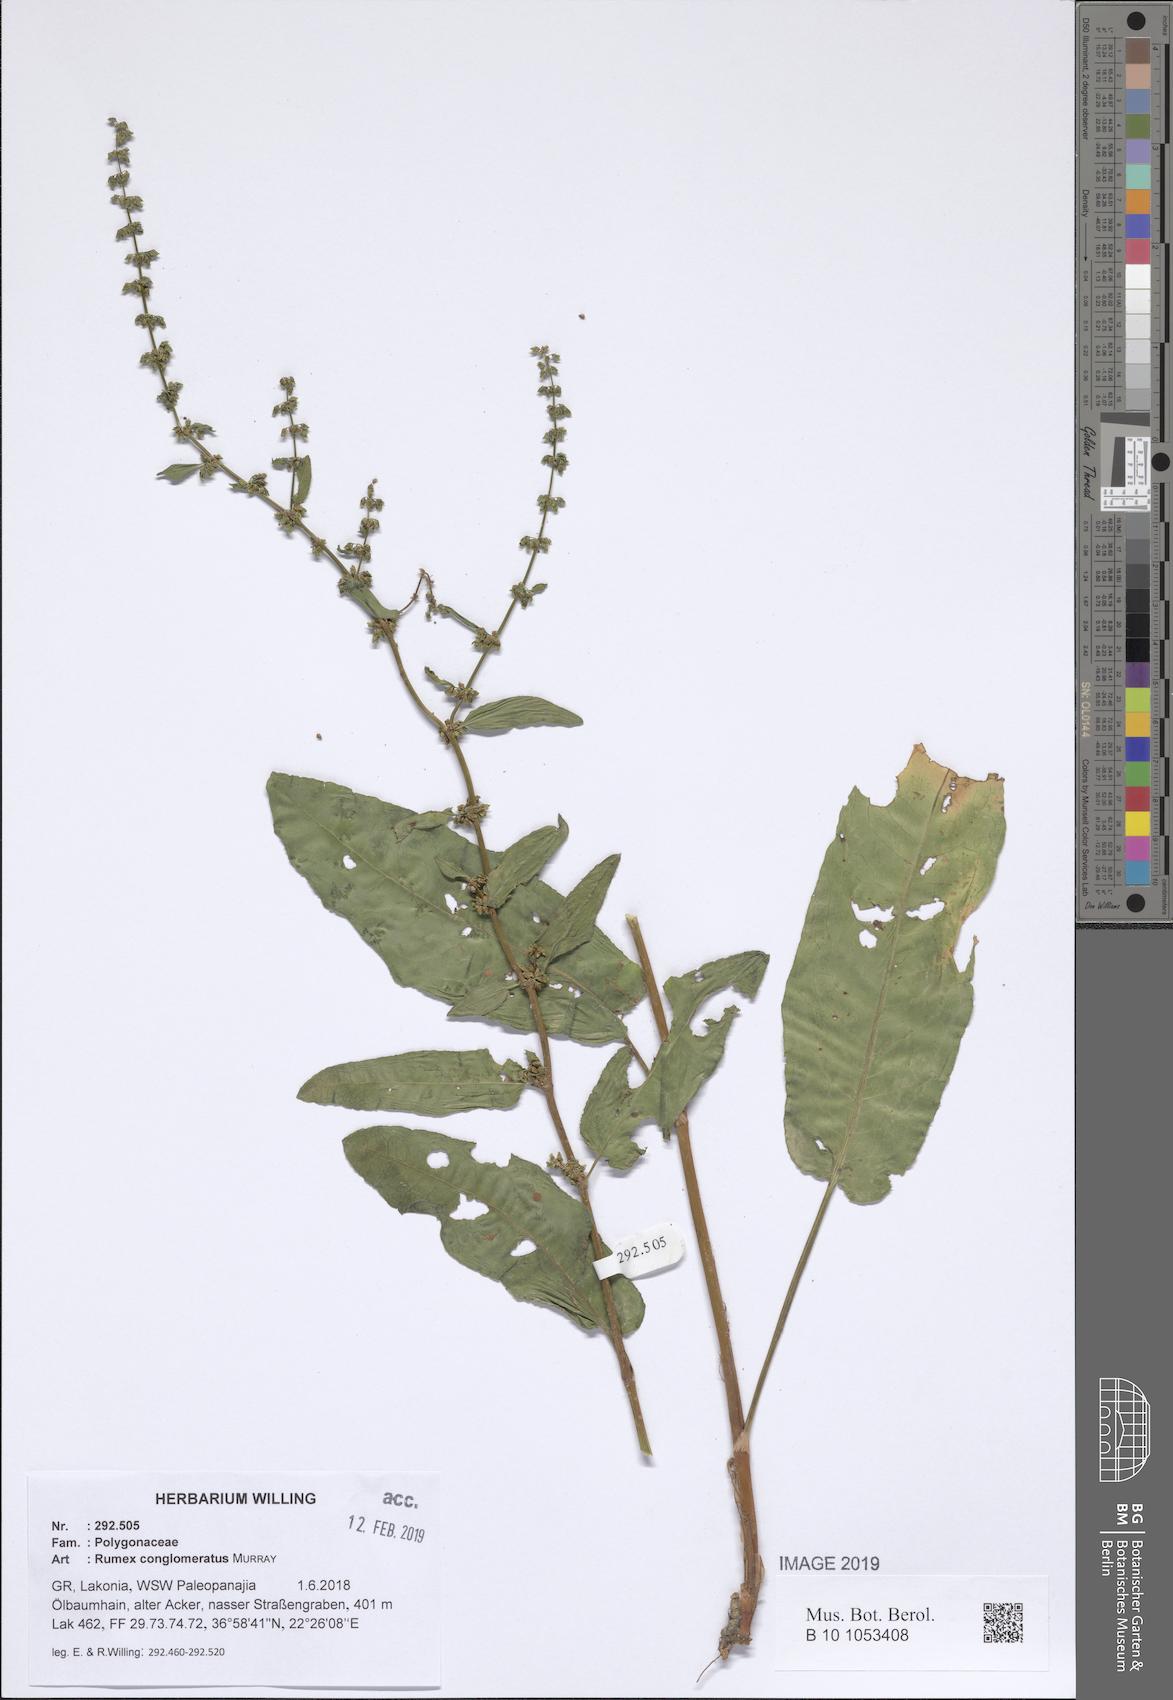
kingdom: Plantae
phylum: Tracheophyta
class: Magnoliopsida
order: Caryophyllales
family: Polygonaceae
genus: Rumex
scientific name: Rumex conglomeratus
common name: Clustered dock
